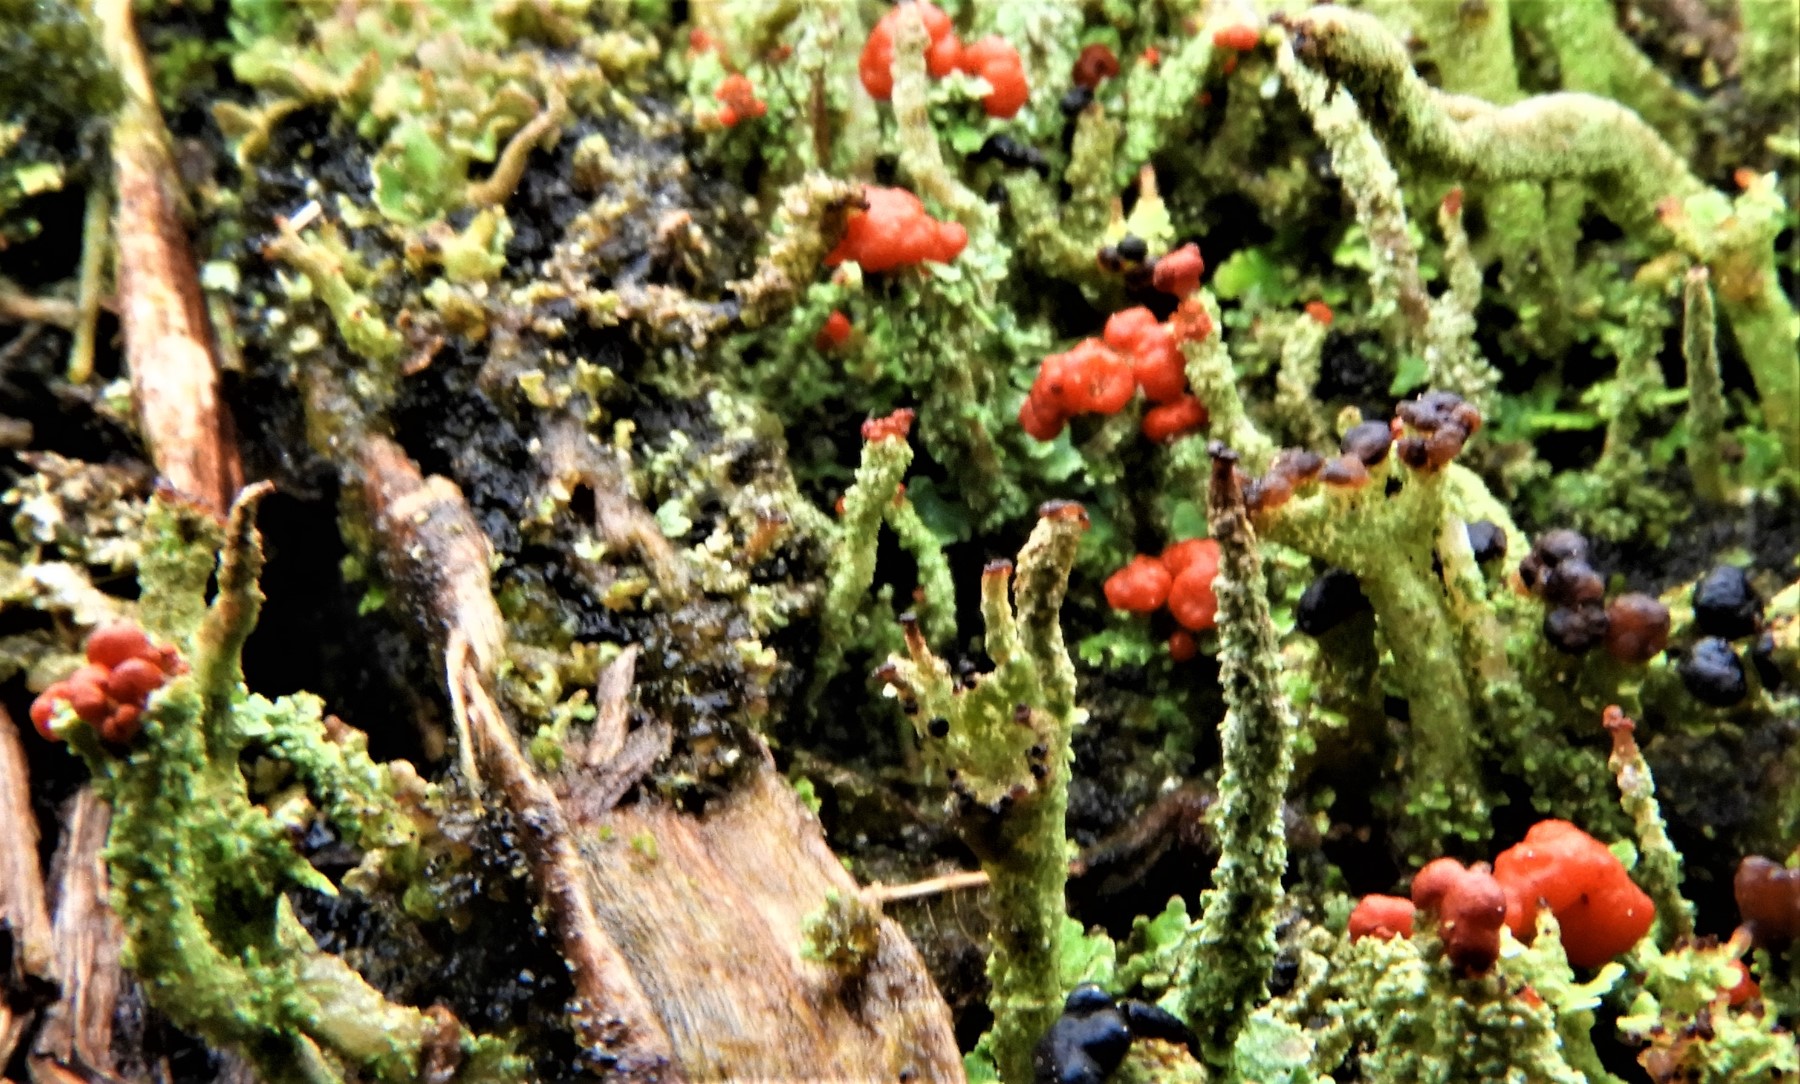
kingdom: Fungi
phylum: Ascomycota
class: Lecanoromycetes
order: Lecanorales
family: Cladoniaceae
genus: Cladonia
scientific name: Cladonia floerkeana
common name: lakrød bægerlav
